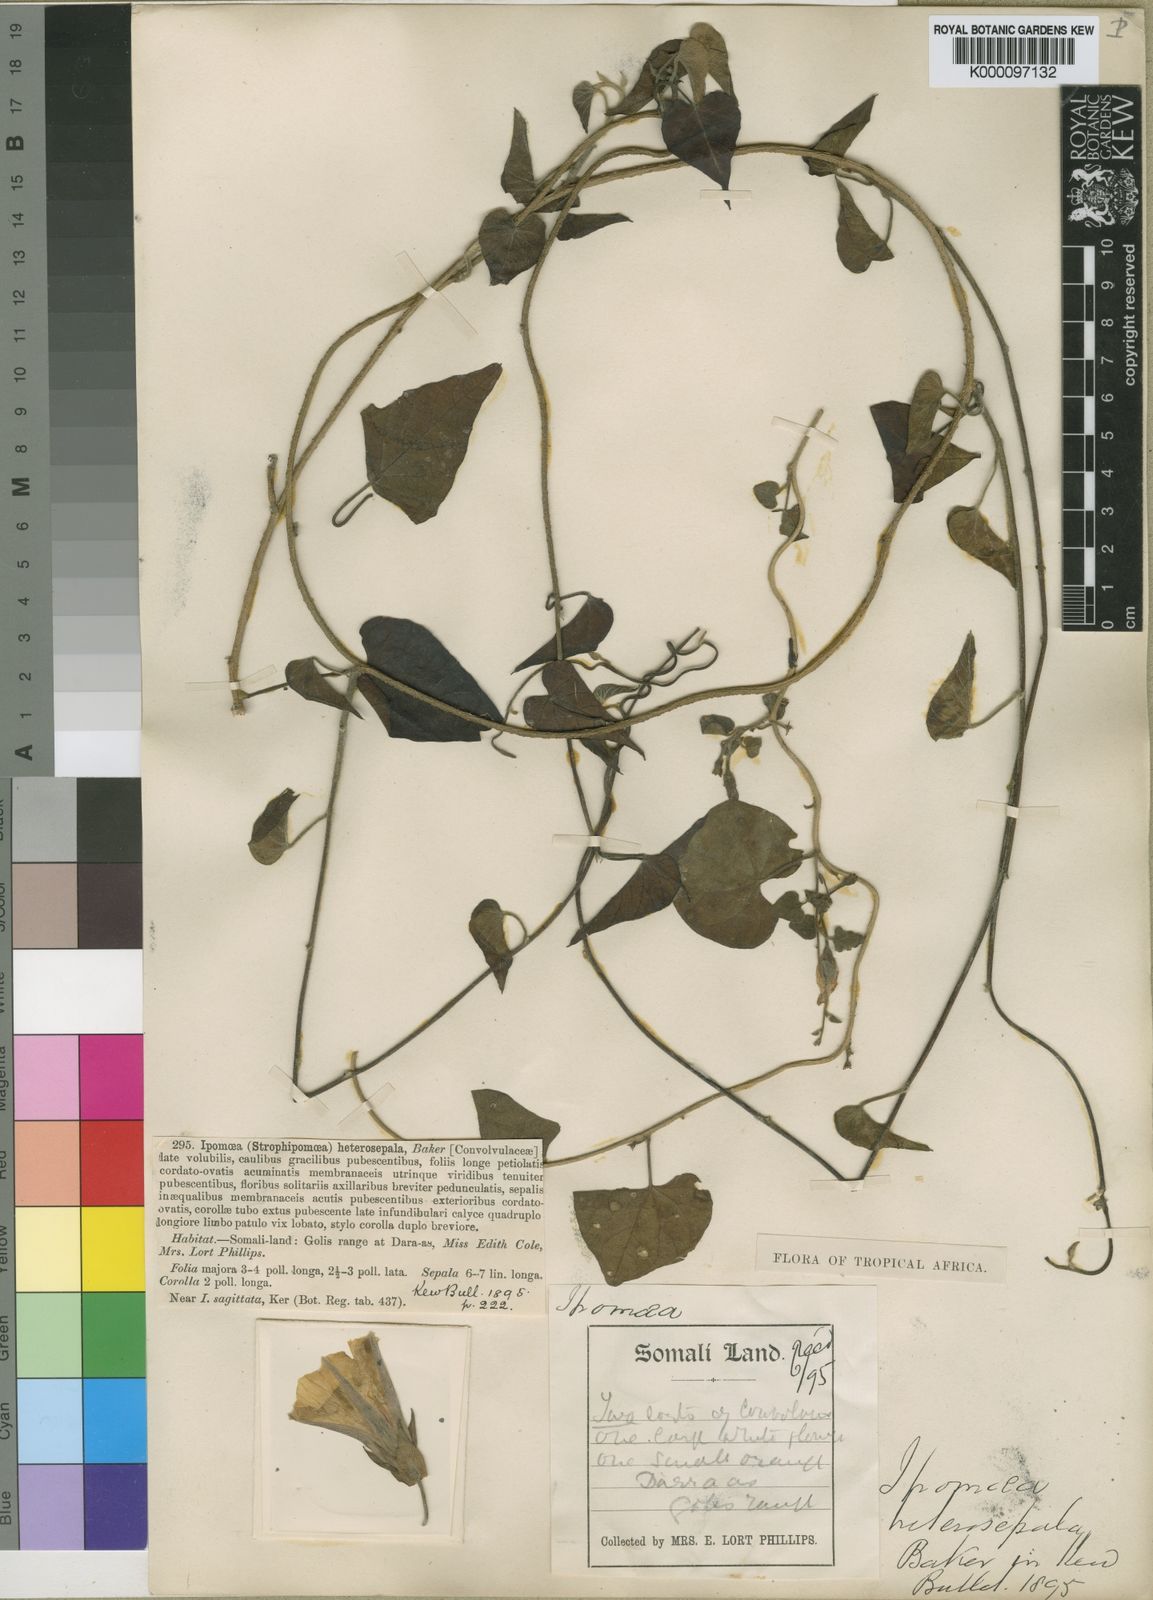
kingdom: Plantae
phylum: Tracheophyta
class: Magnoliopsida
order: Solanales
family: Convolvulaceae
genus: Ipomoea
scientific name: Ipomoea heterosepala
